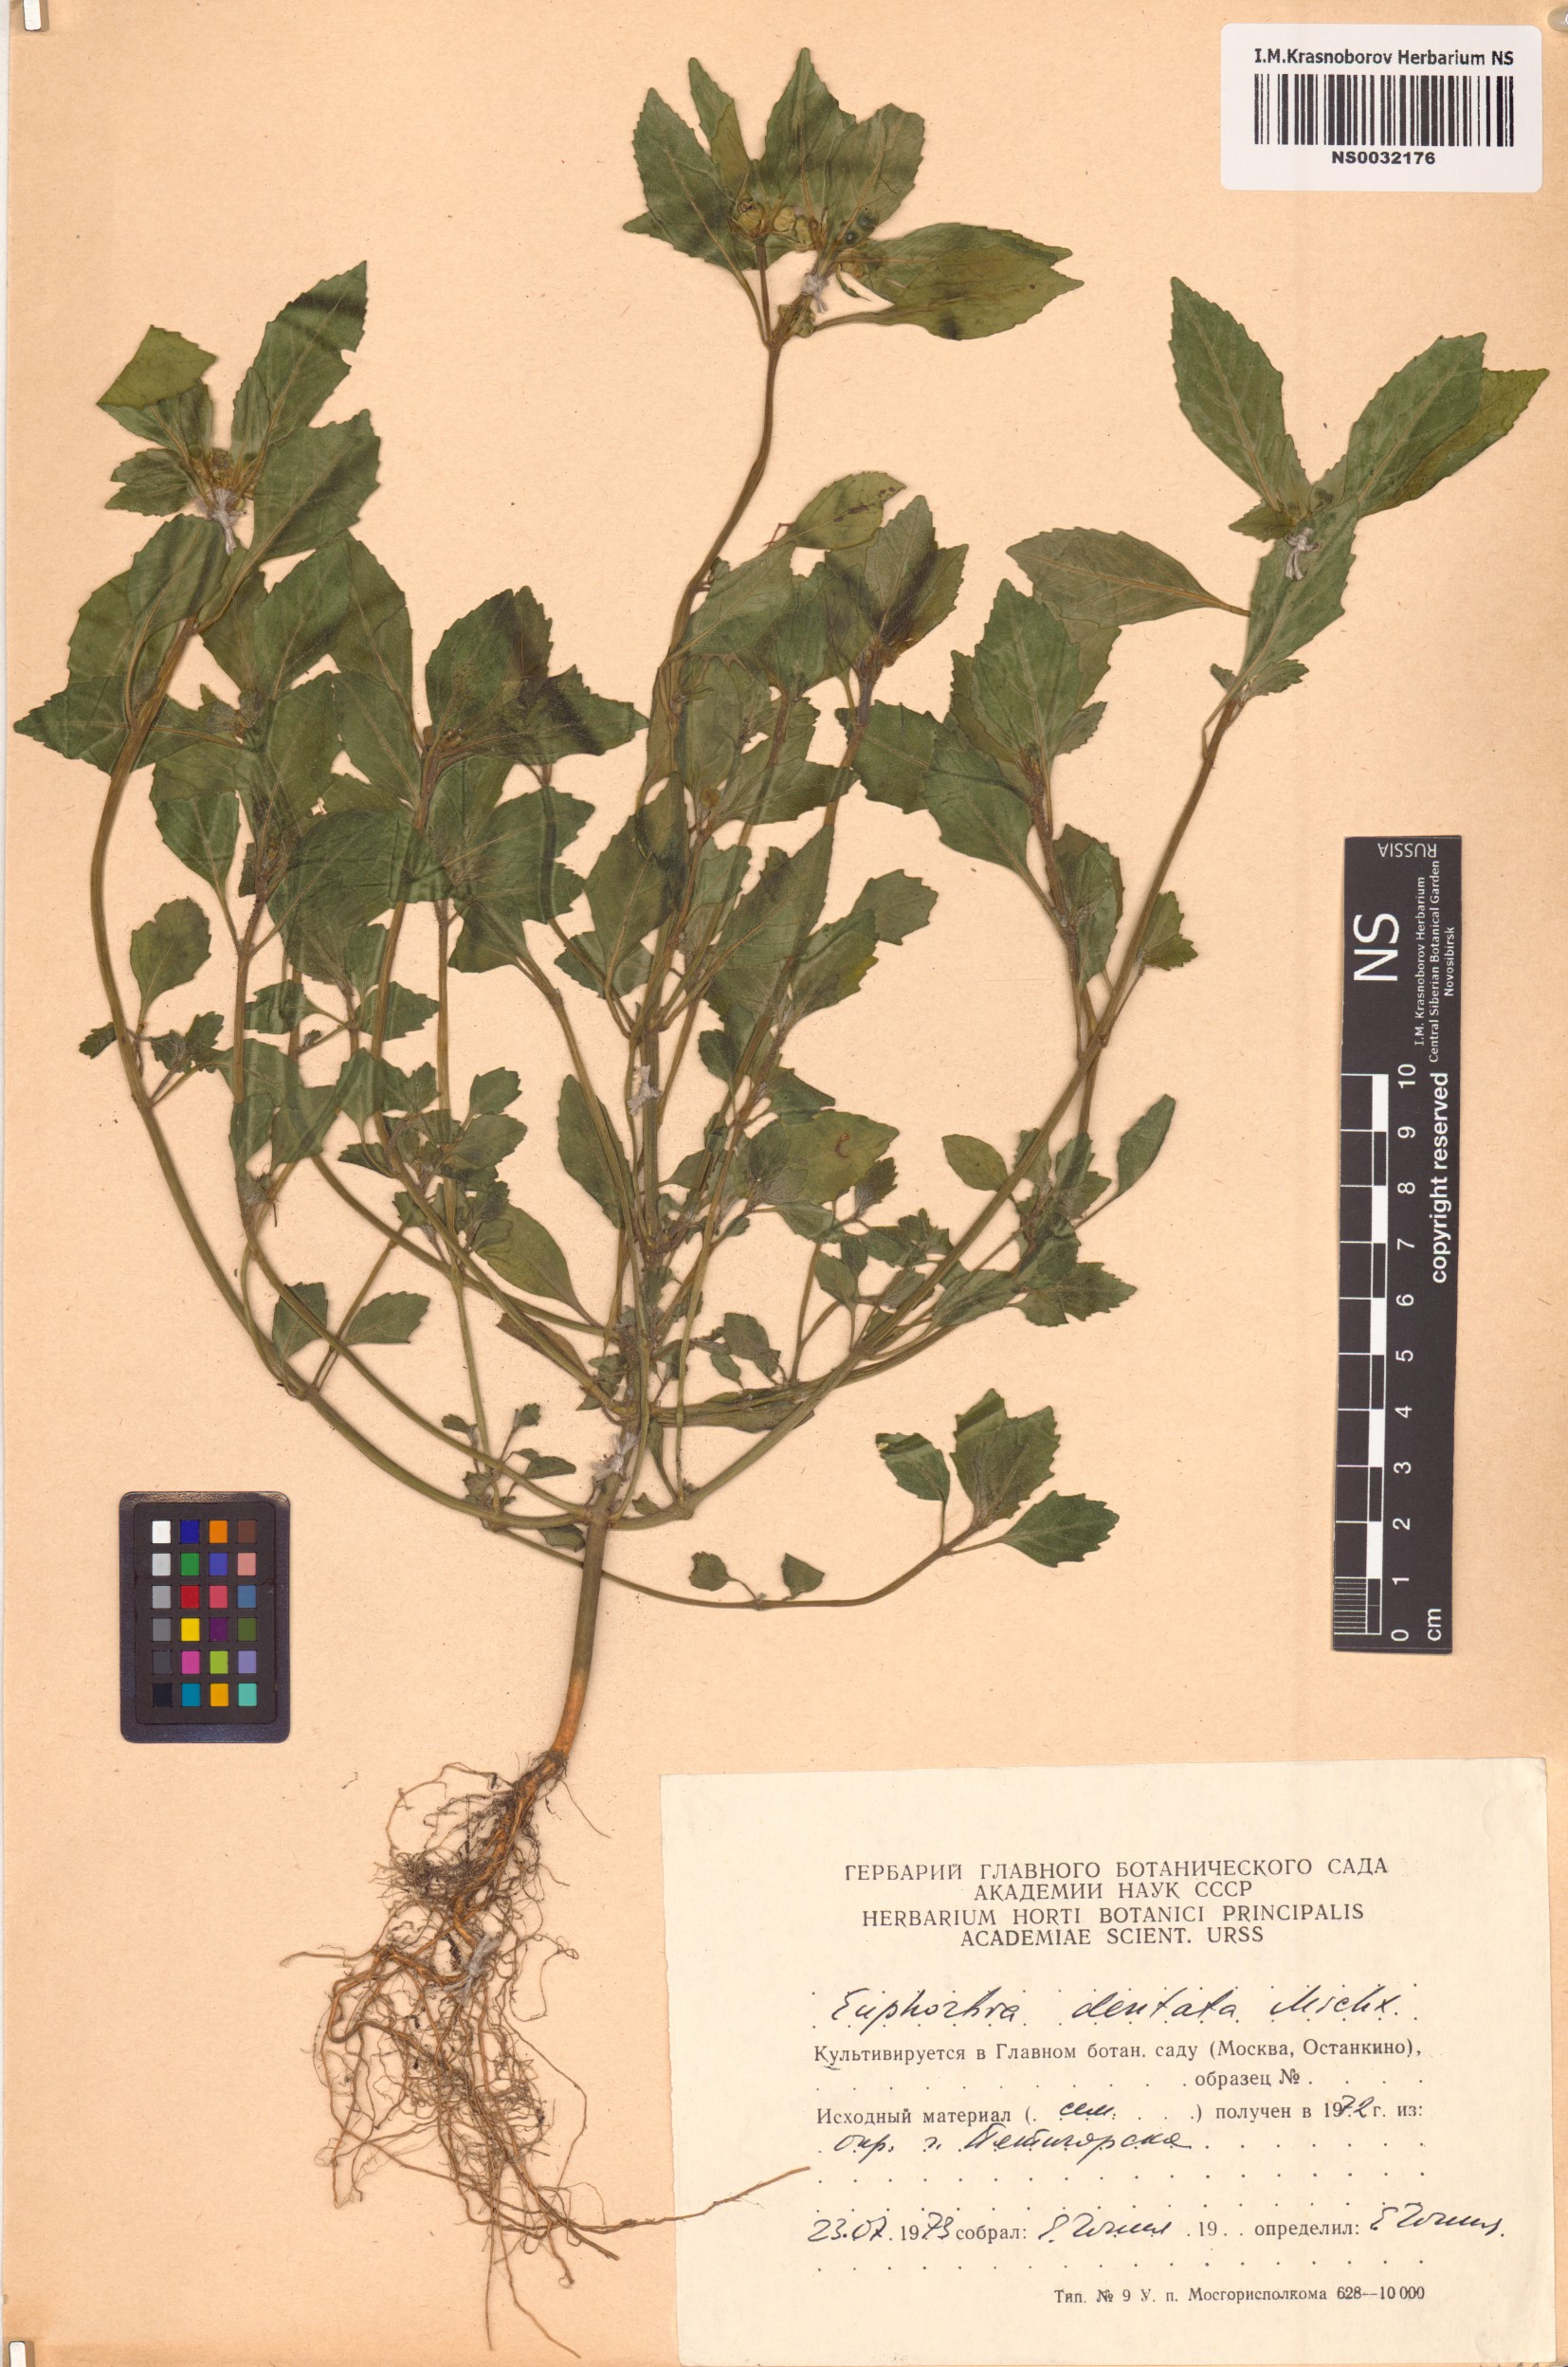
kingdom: Plantae
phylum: Tracheophyta
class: Magnoliopsida
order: Malpighiales
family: Euphorbiaceae
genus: Euphorbia
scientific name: Euphorbia dentata
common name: Dentate spurge
